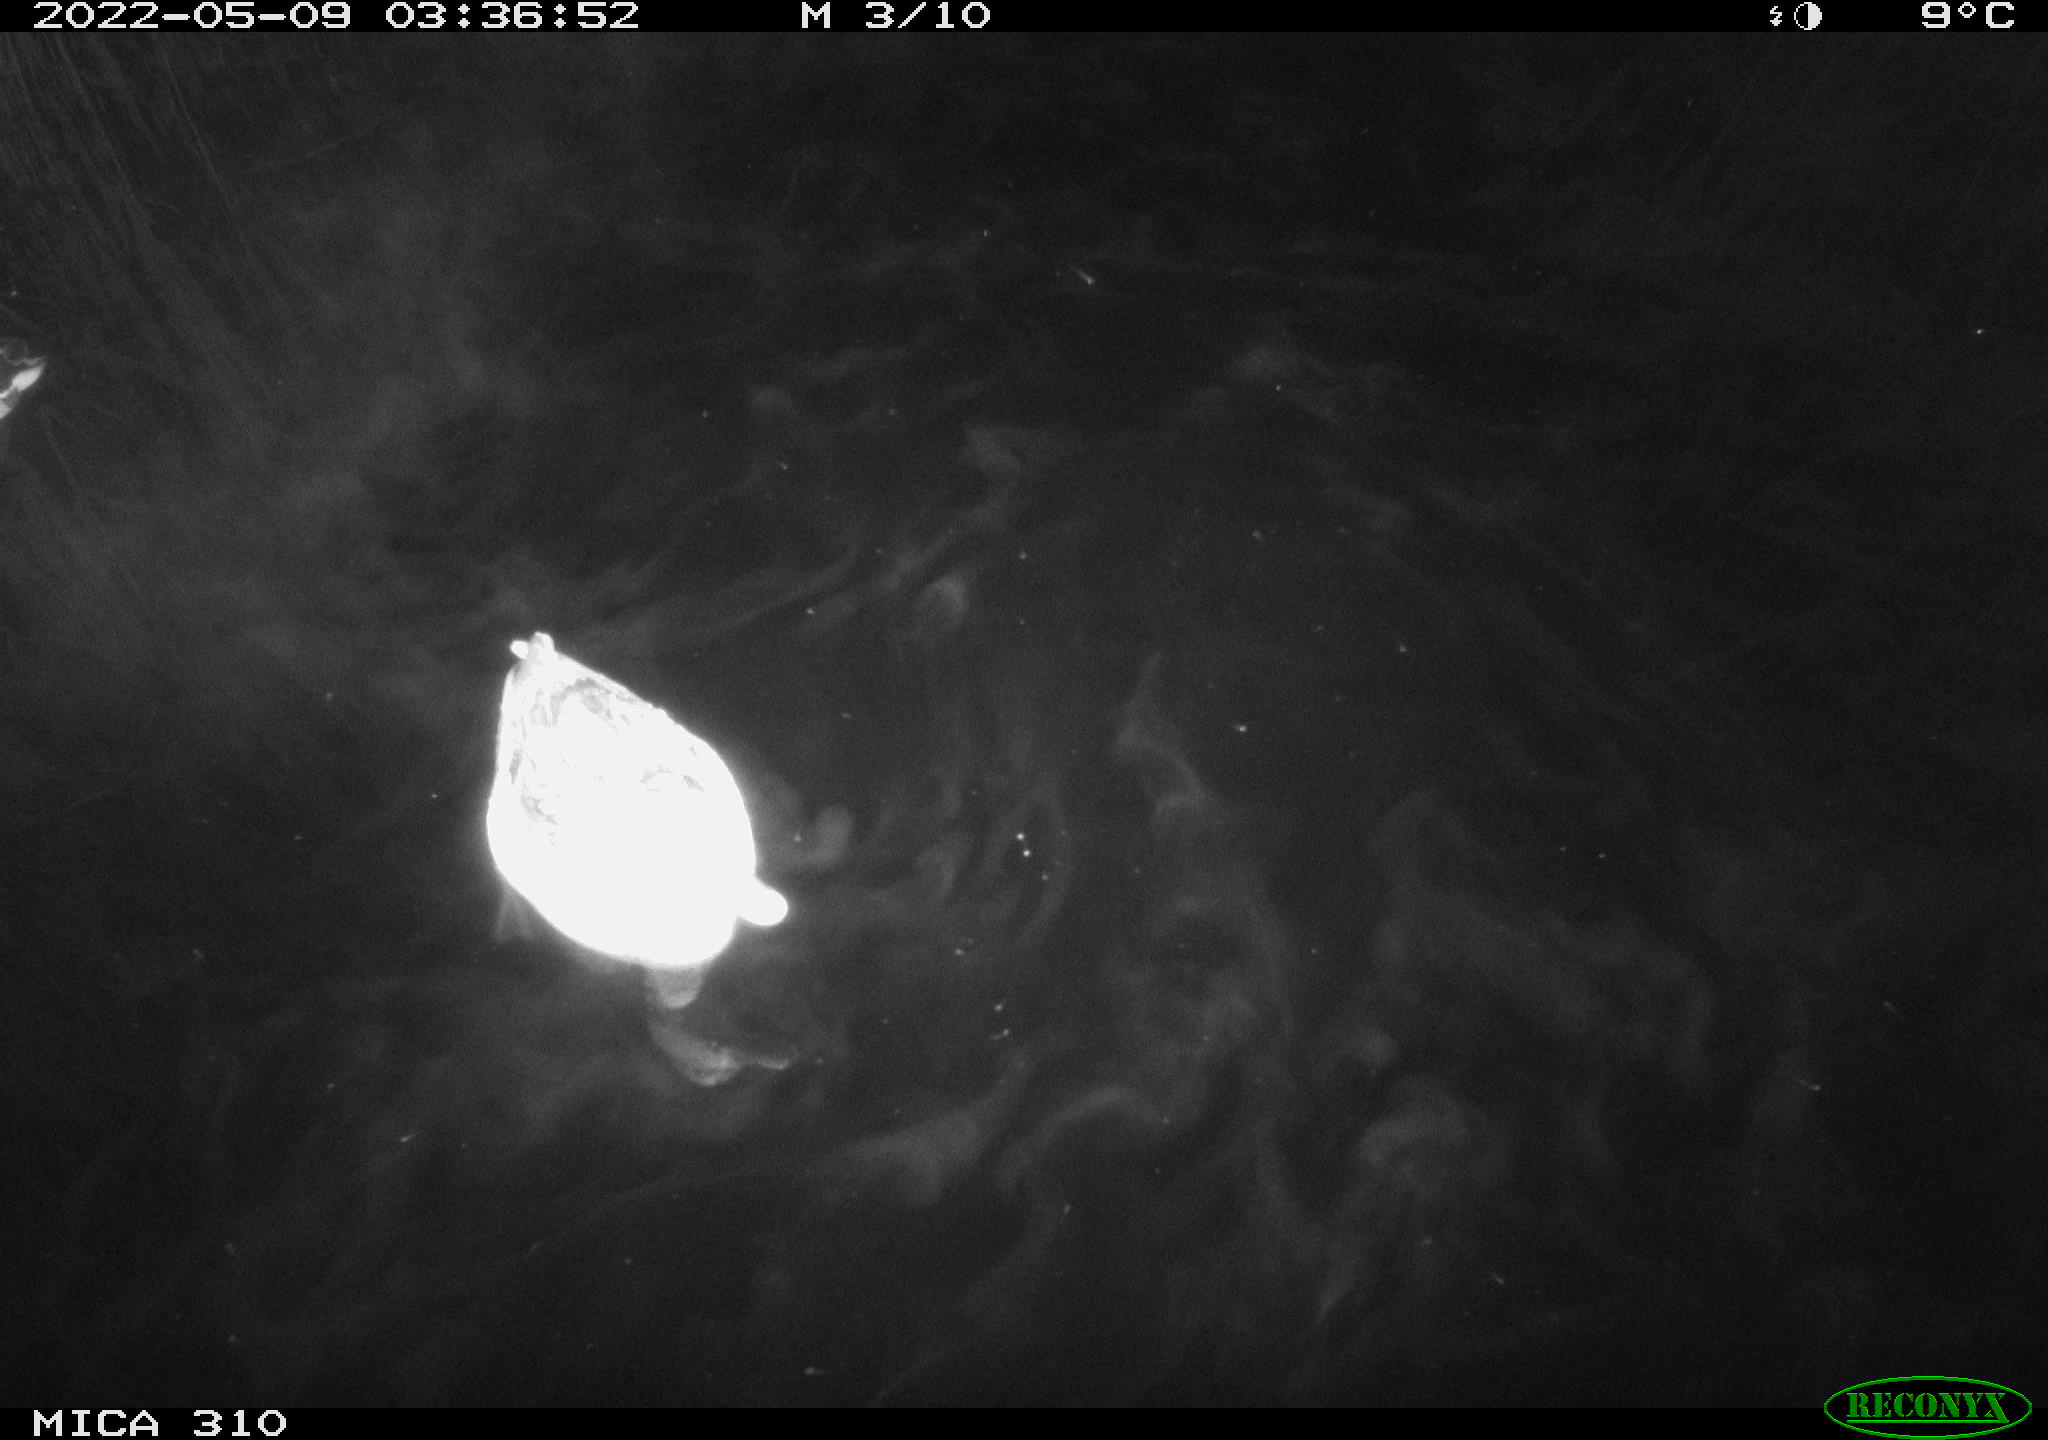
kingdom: Animalia
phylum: Chordata
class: Aves
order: Anseriformes
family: Anatidae
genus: Anas
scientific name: Anas platyrhynchos
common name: Mallard
